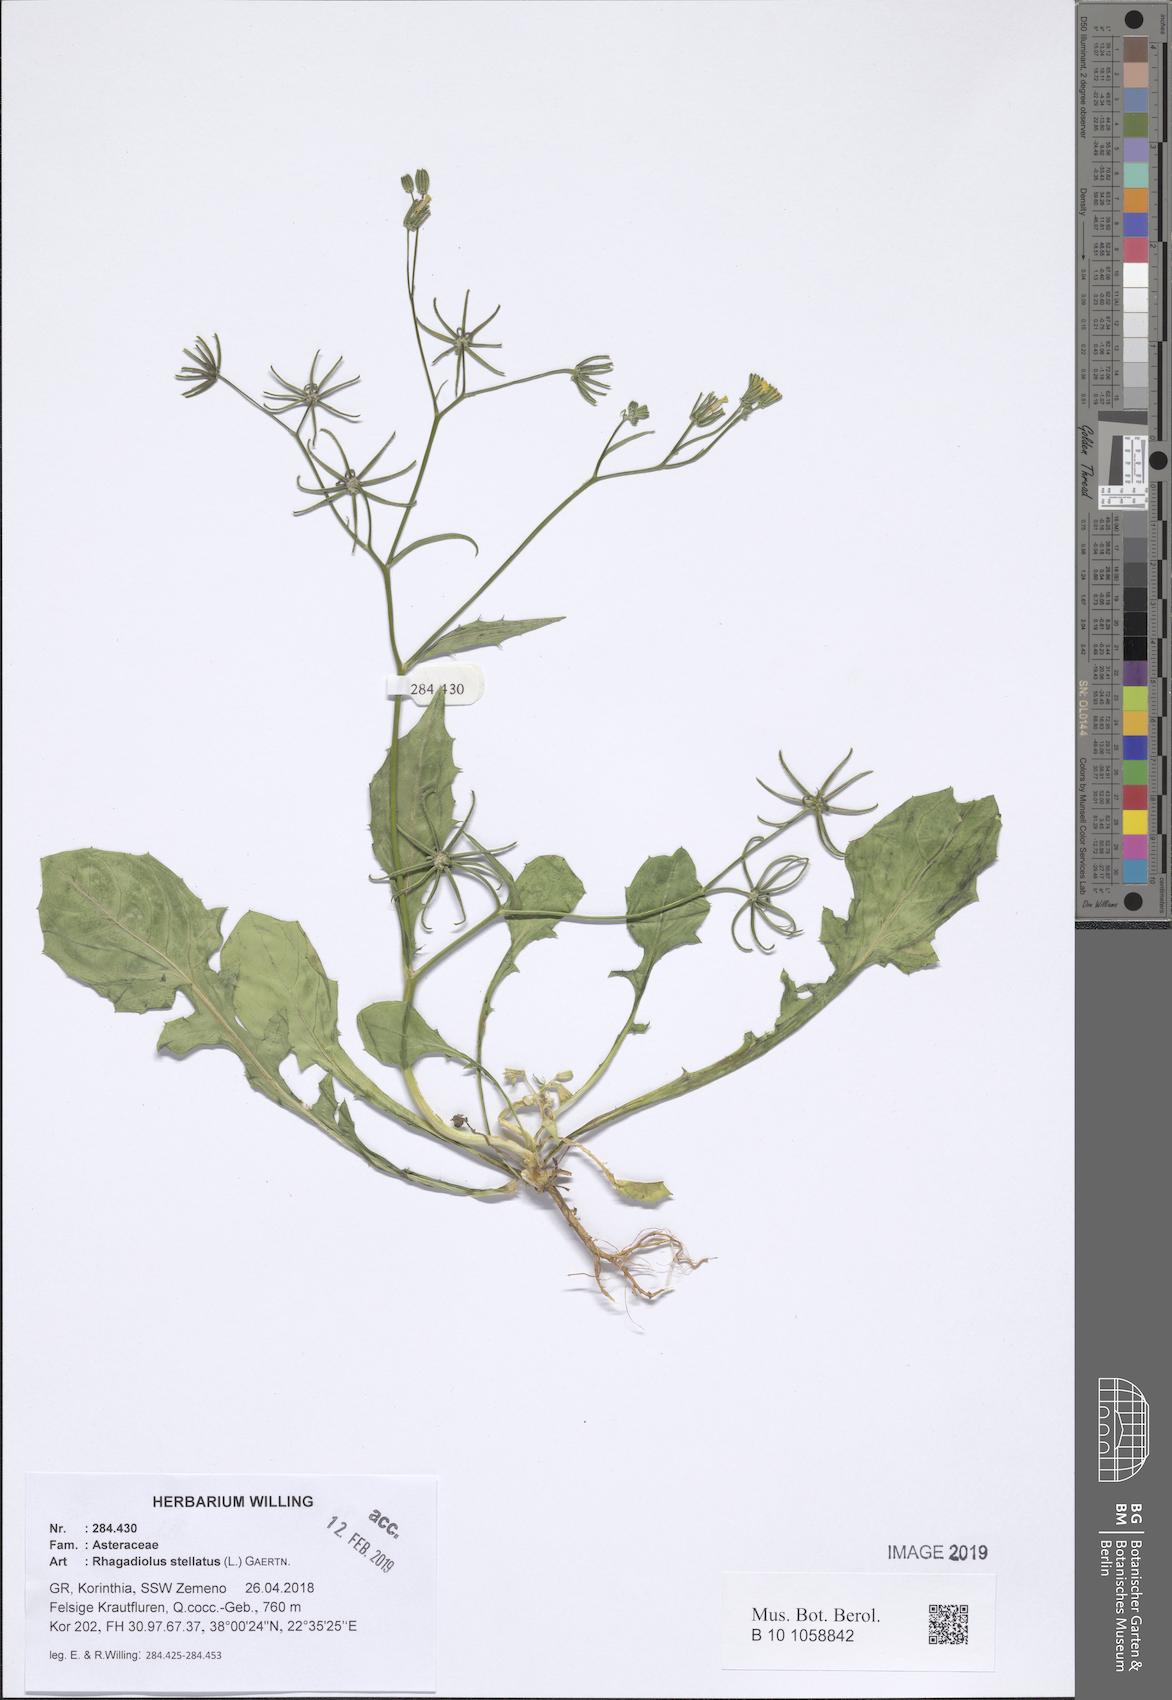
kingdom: Plantae
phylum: Tracheophyta
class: Magnoliopsida
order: Asterales
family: Asteraceae
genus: Rhagadiolus
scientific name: Rhagadiolus stellatus
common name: Star hawkbit
